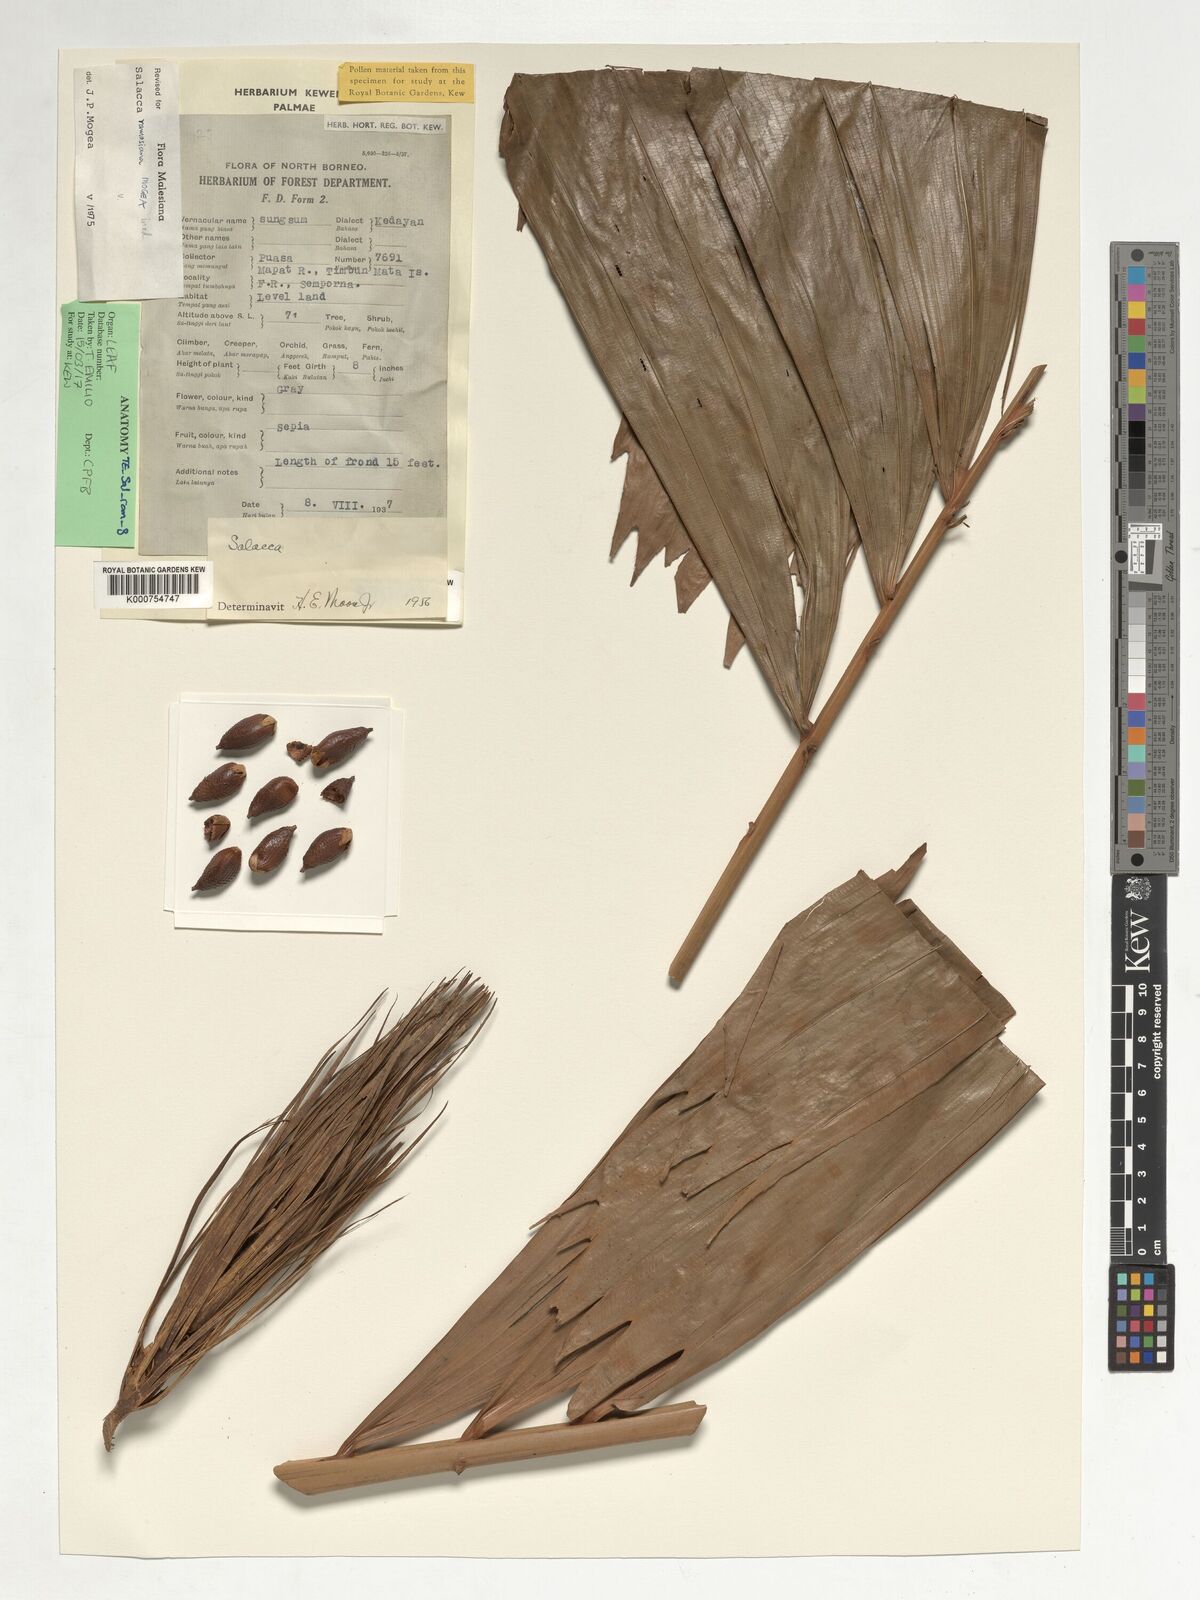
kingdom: Plantae
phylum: Tracheophyta
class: Liliopsida
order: Arecales
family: Arecaceae
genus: Salacca
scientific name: Salacca ramosiana
